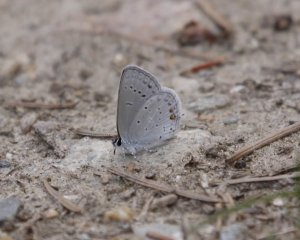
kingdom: Animalia
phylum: Arthropoda
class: Insecta
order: Lepidoptera
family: Lycaenidae
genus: Elkalyce
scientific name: Elkalyce amyntula
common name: Western Tailed-Blue
